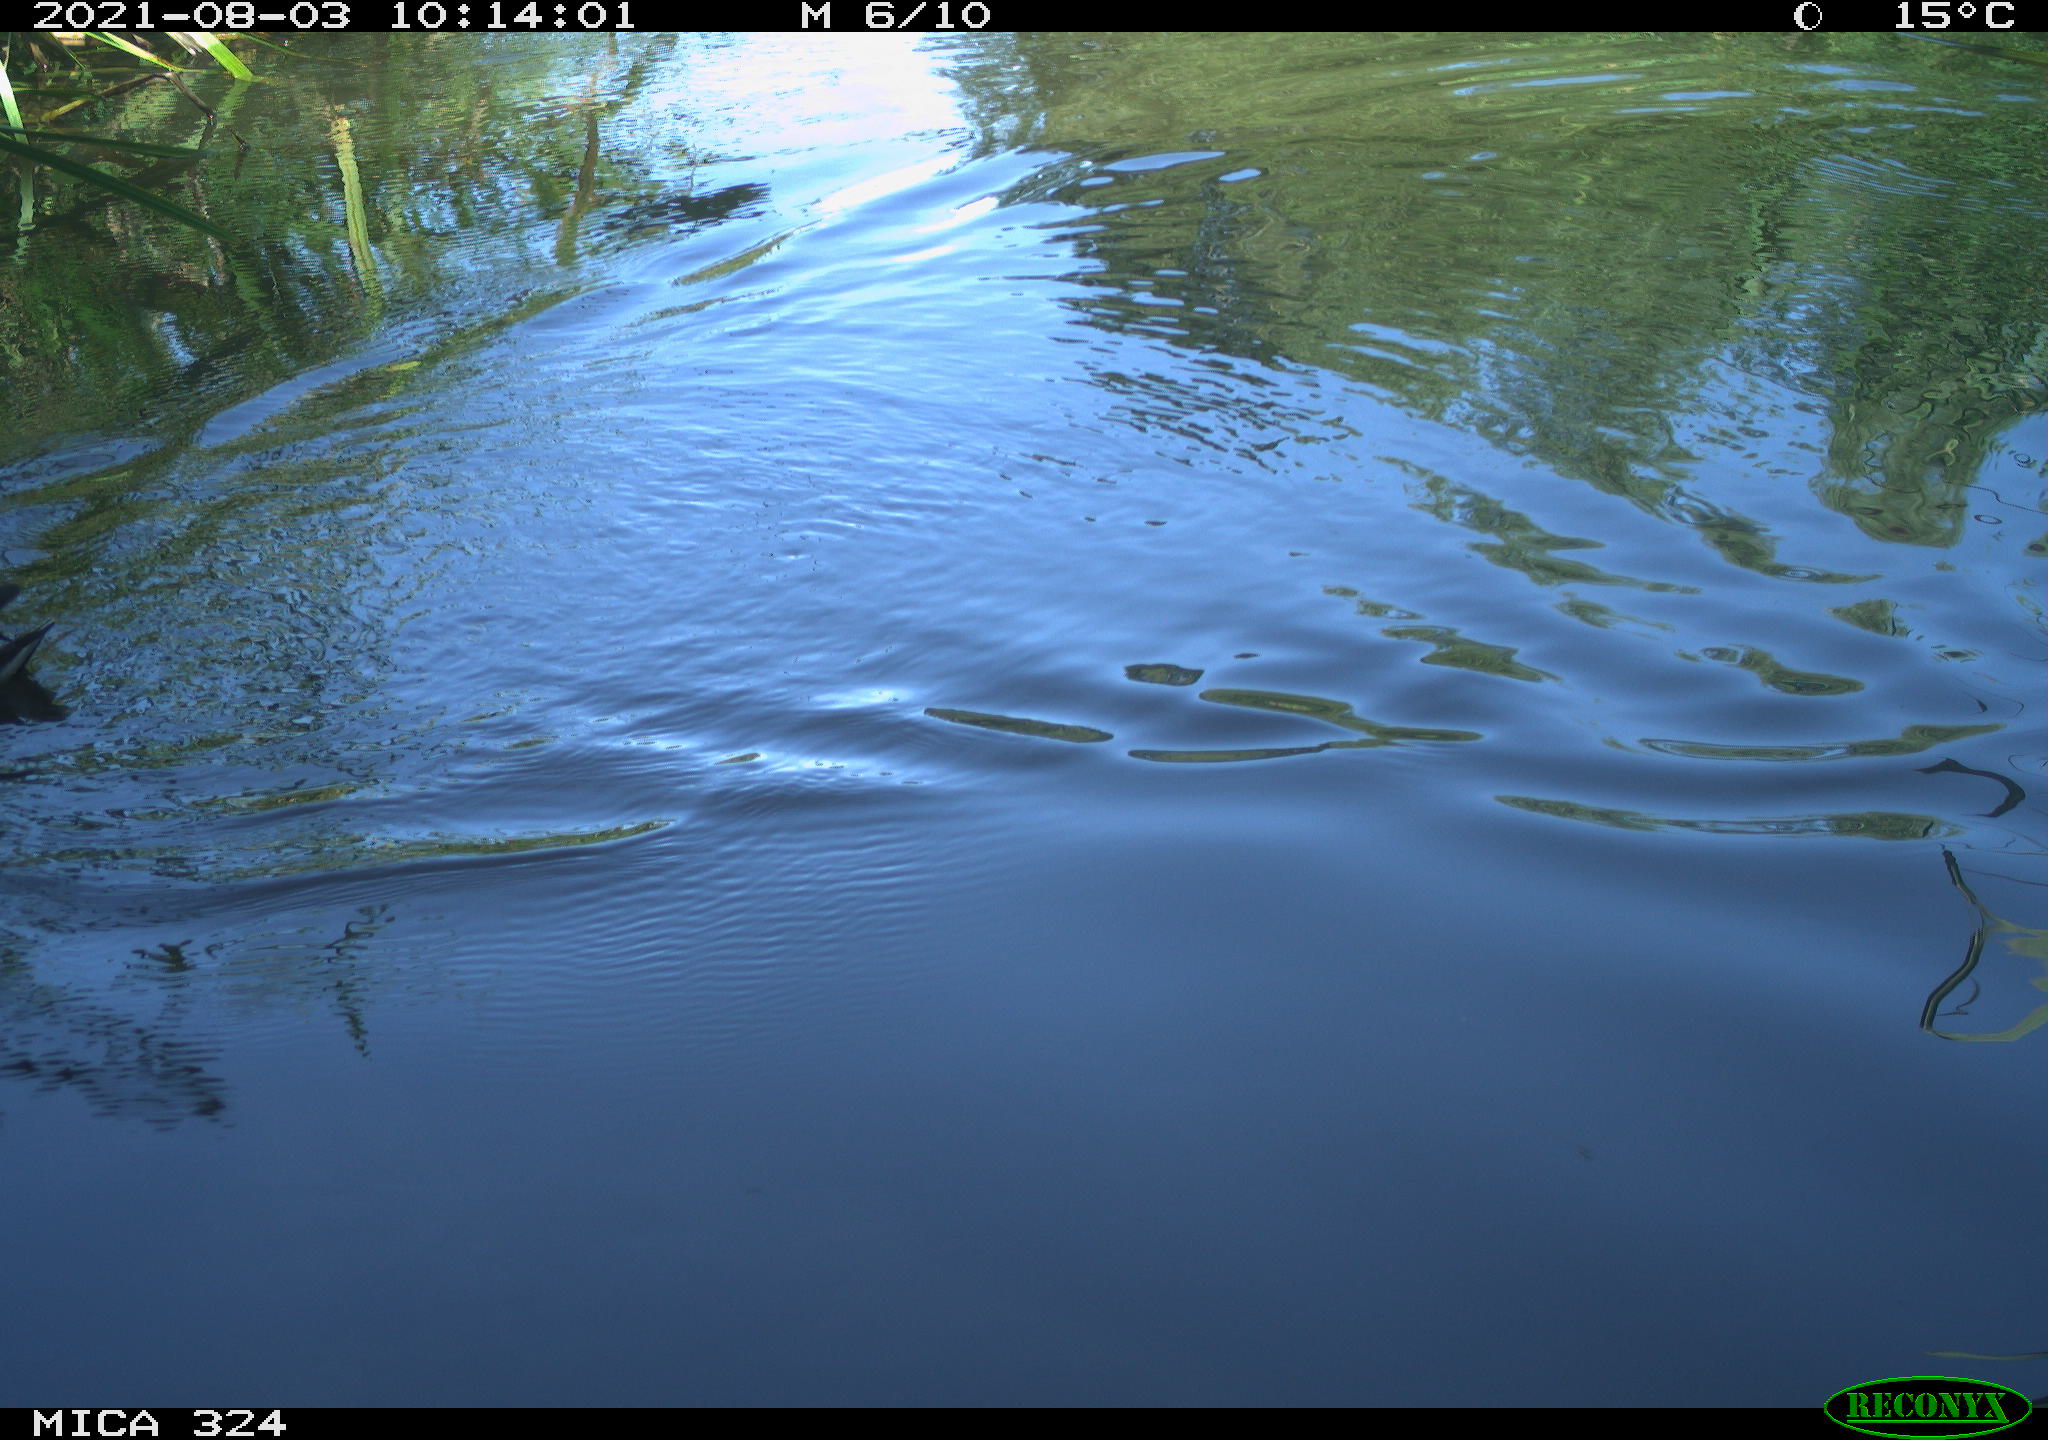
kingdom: Animalia
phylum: Chordata
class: Aves
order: Gruiformes
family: Rallidae
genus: Gallinula
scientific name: Gallinula chloropus
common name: Common moorhen
